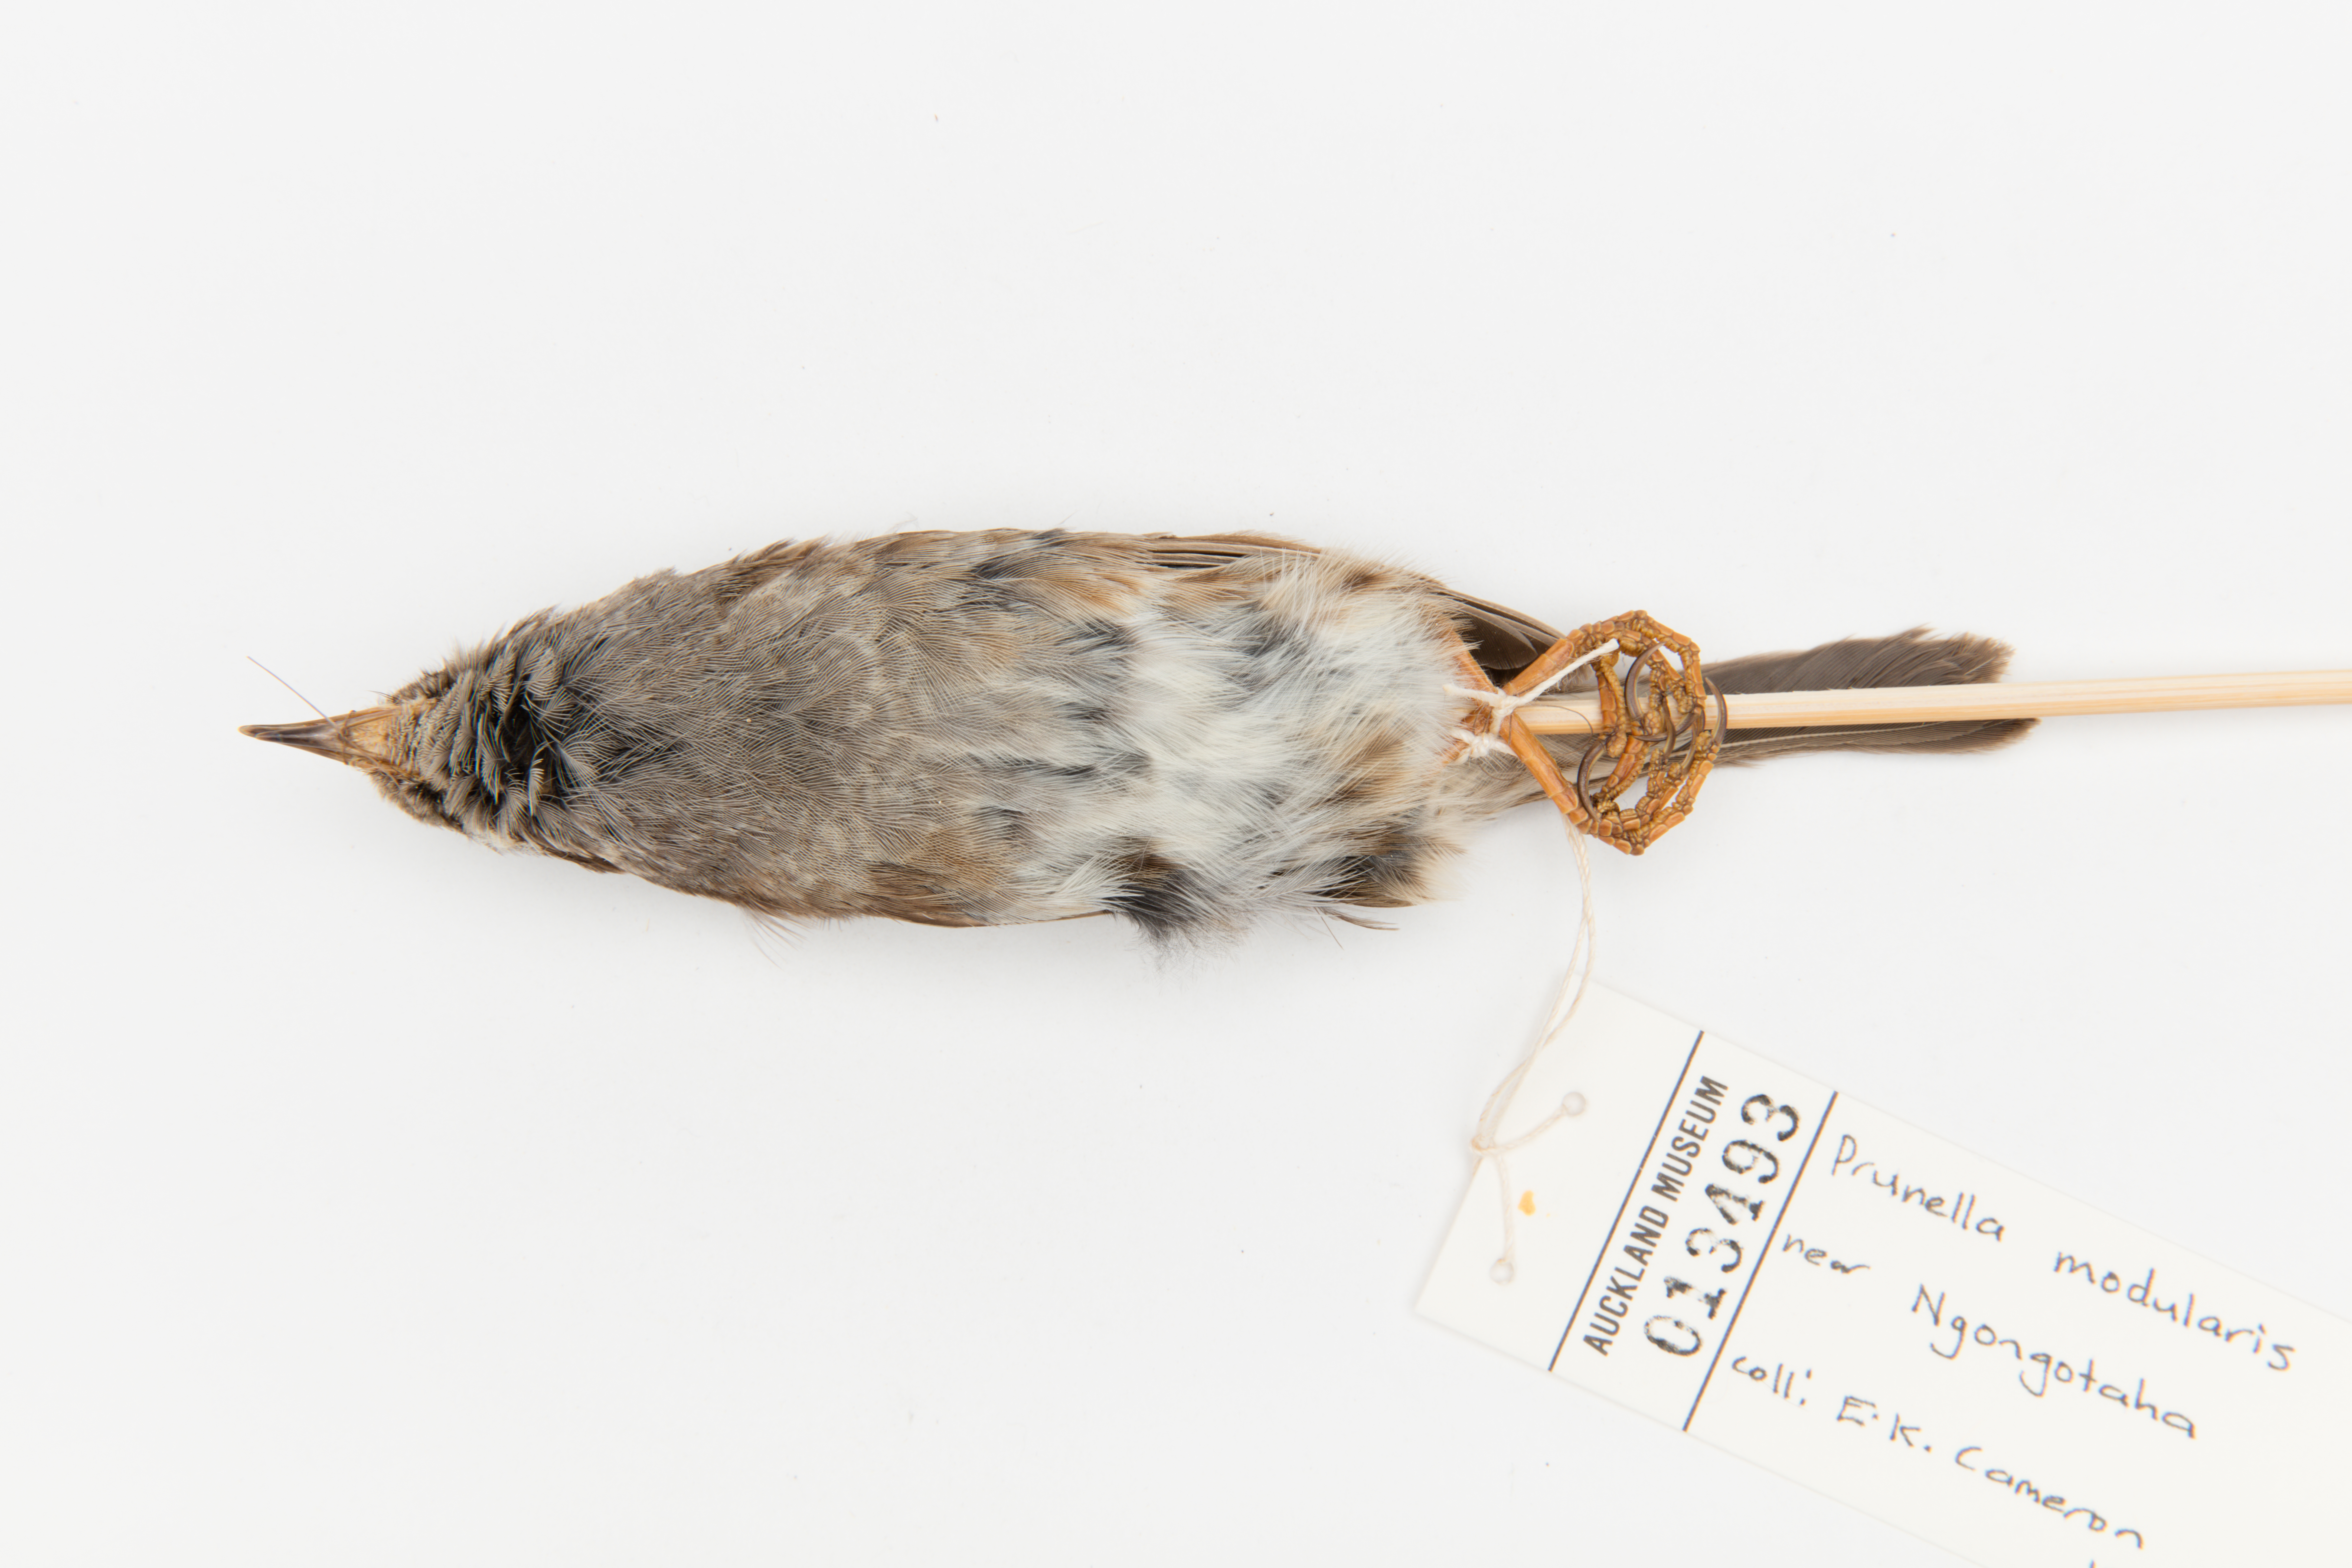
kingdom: Animalia
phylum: Chordata
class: Aves
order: Passeriformes
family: Prunellidae
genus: Prunella
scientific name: Prunella modularis
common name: Dunnock
